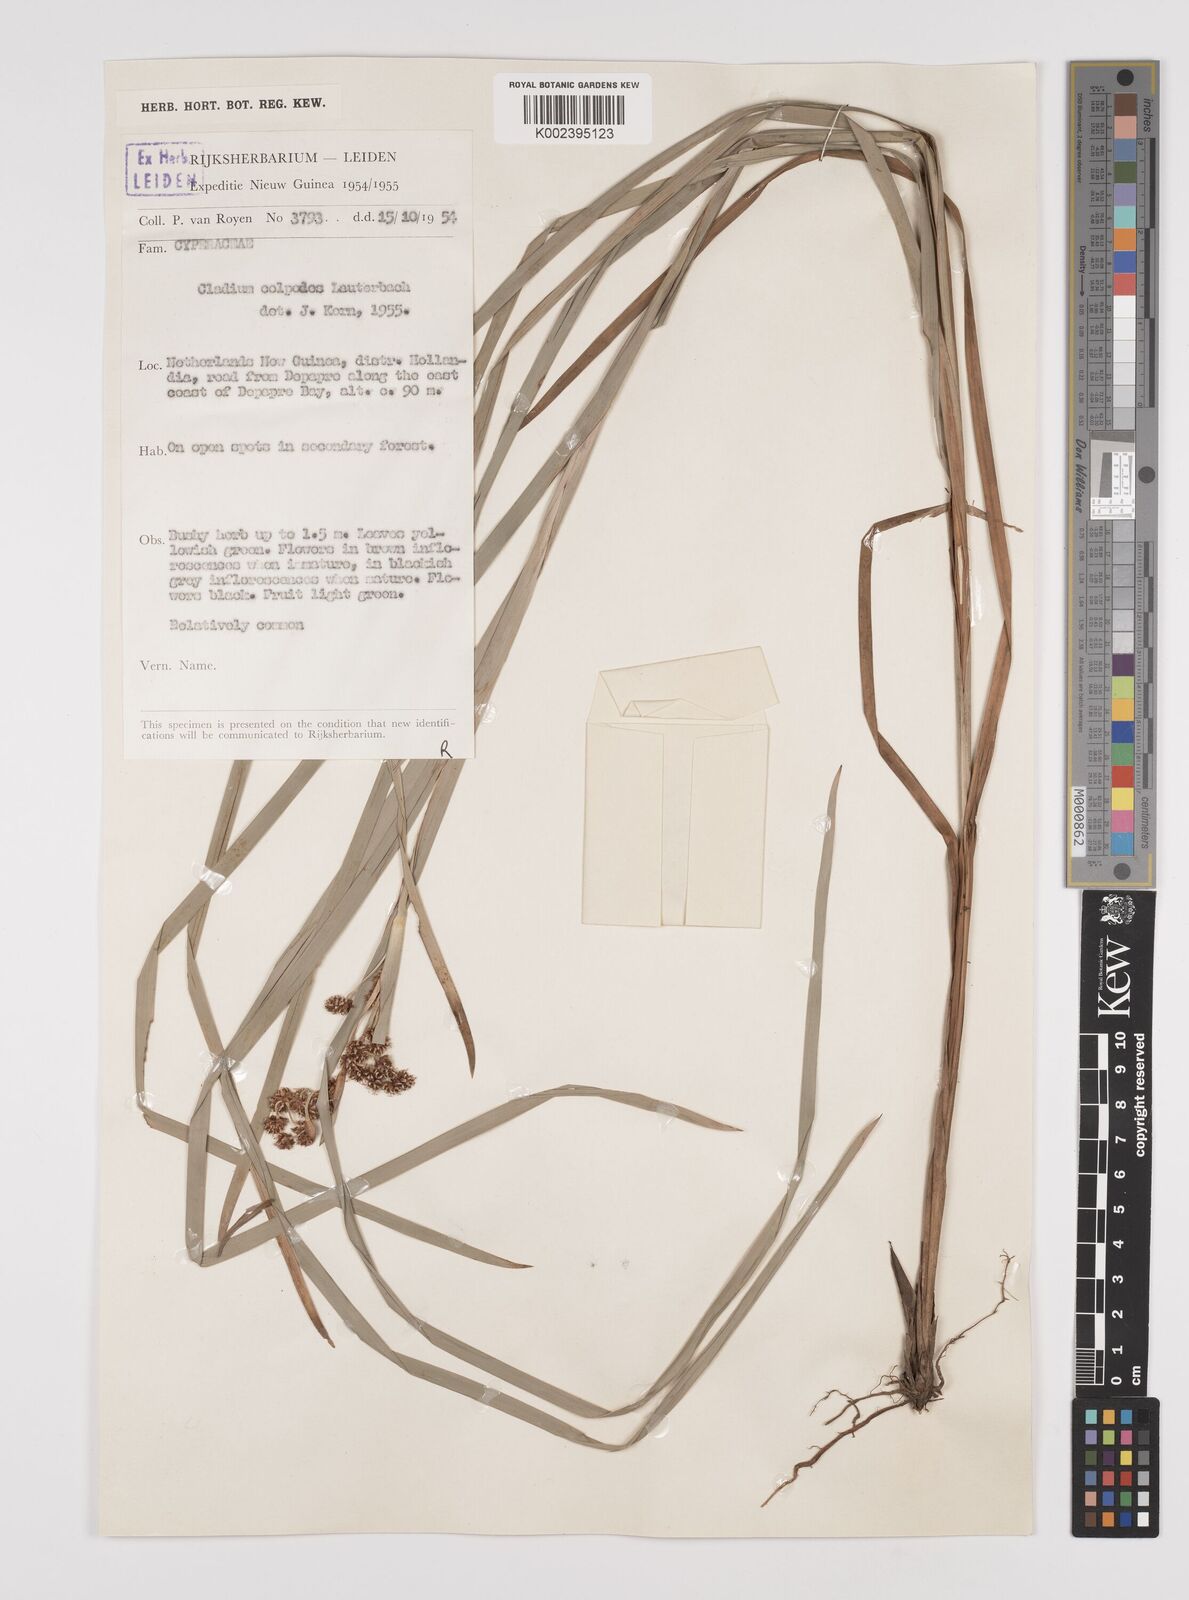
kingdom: Plantae
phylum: Tracheophyta
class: Liliopsida
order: Poales
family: Cyperaceae
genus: Machaerina
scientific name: Machaerina glomerata
